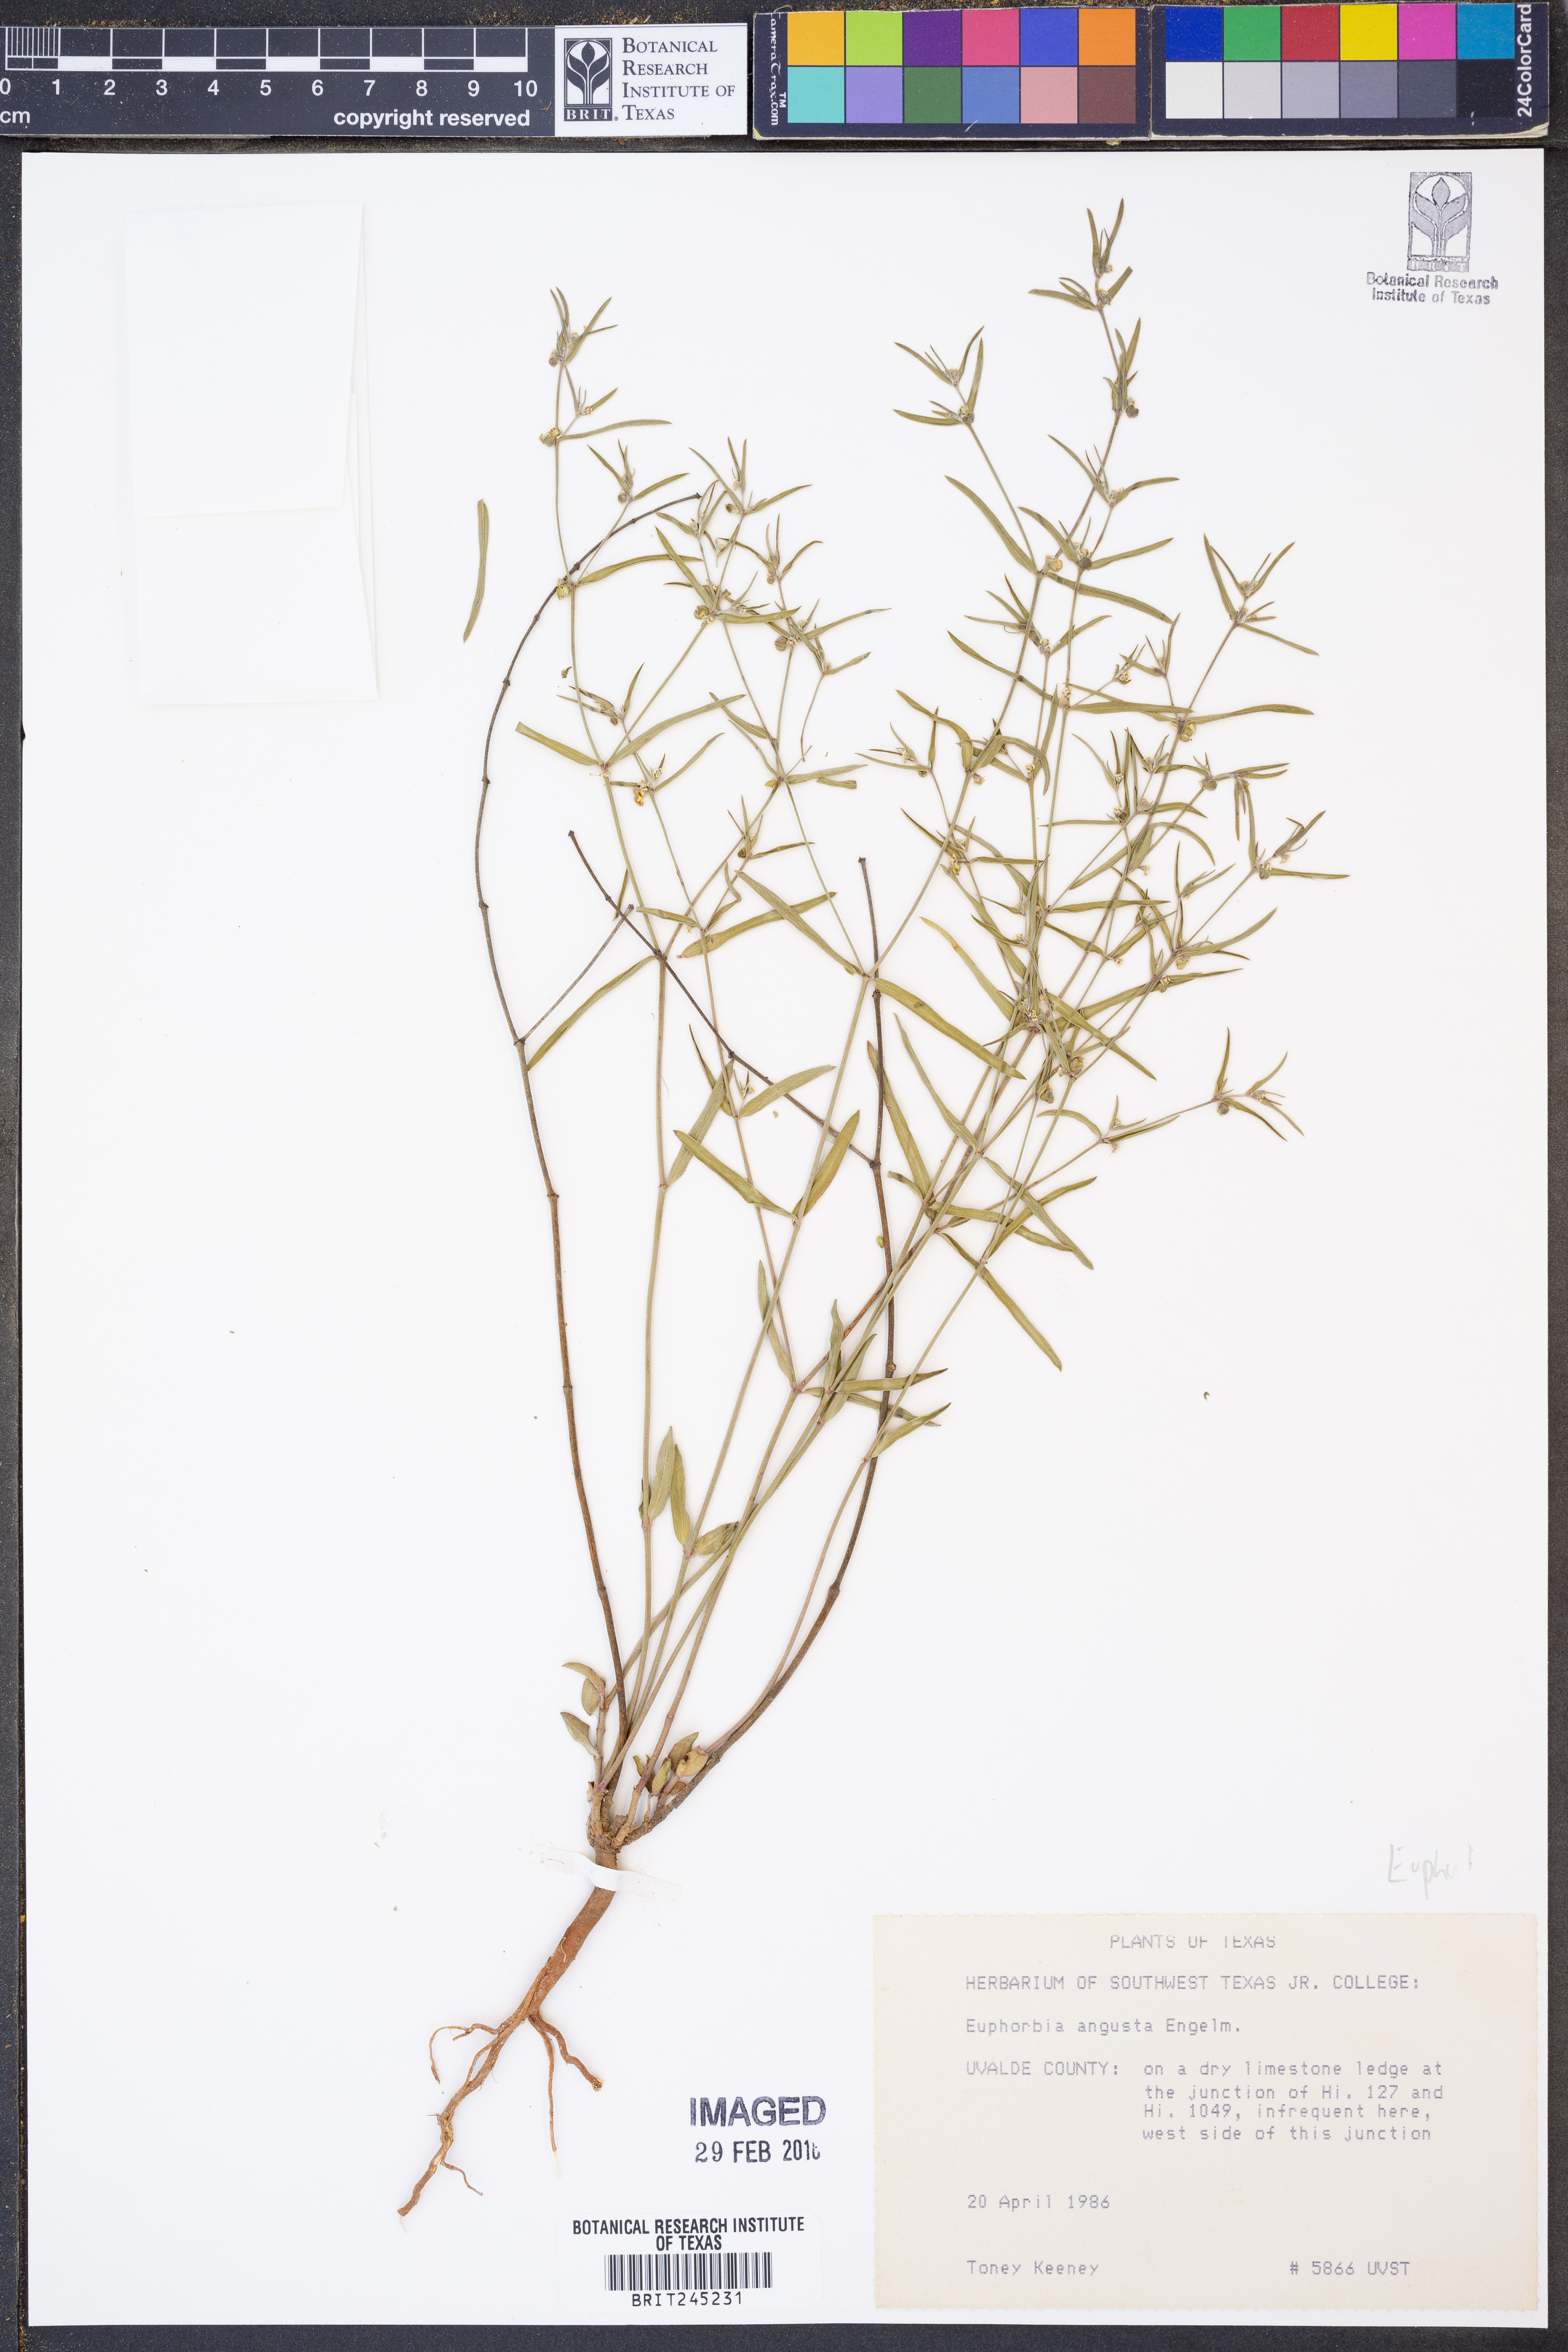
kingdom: Plantae
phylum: Tracheophyta
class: Magnoliopsida
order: Malpighiales
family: Euphorbiaceae
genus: Euphorbia
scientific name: Euphorbia angusta
